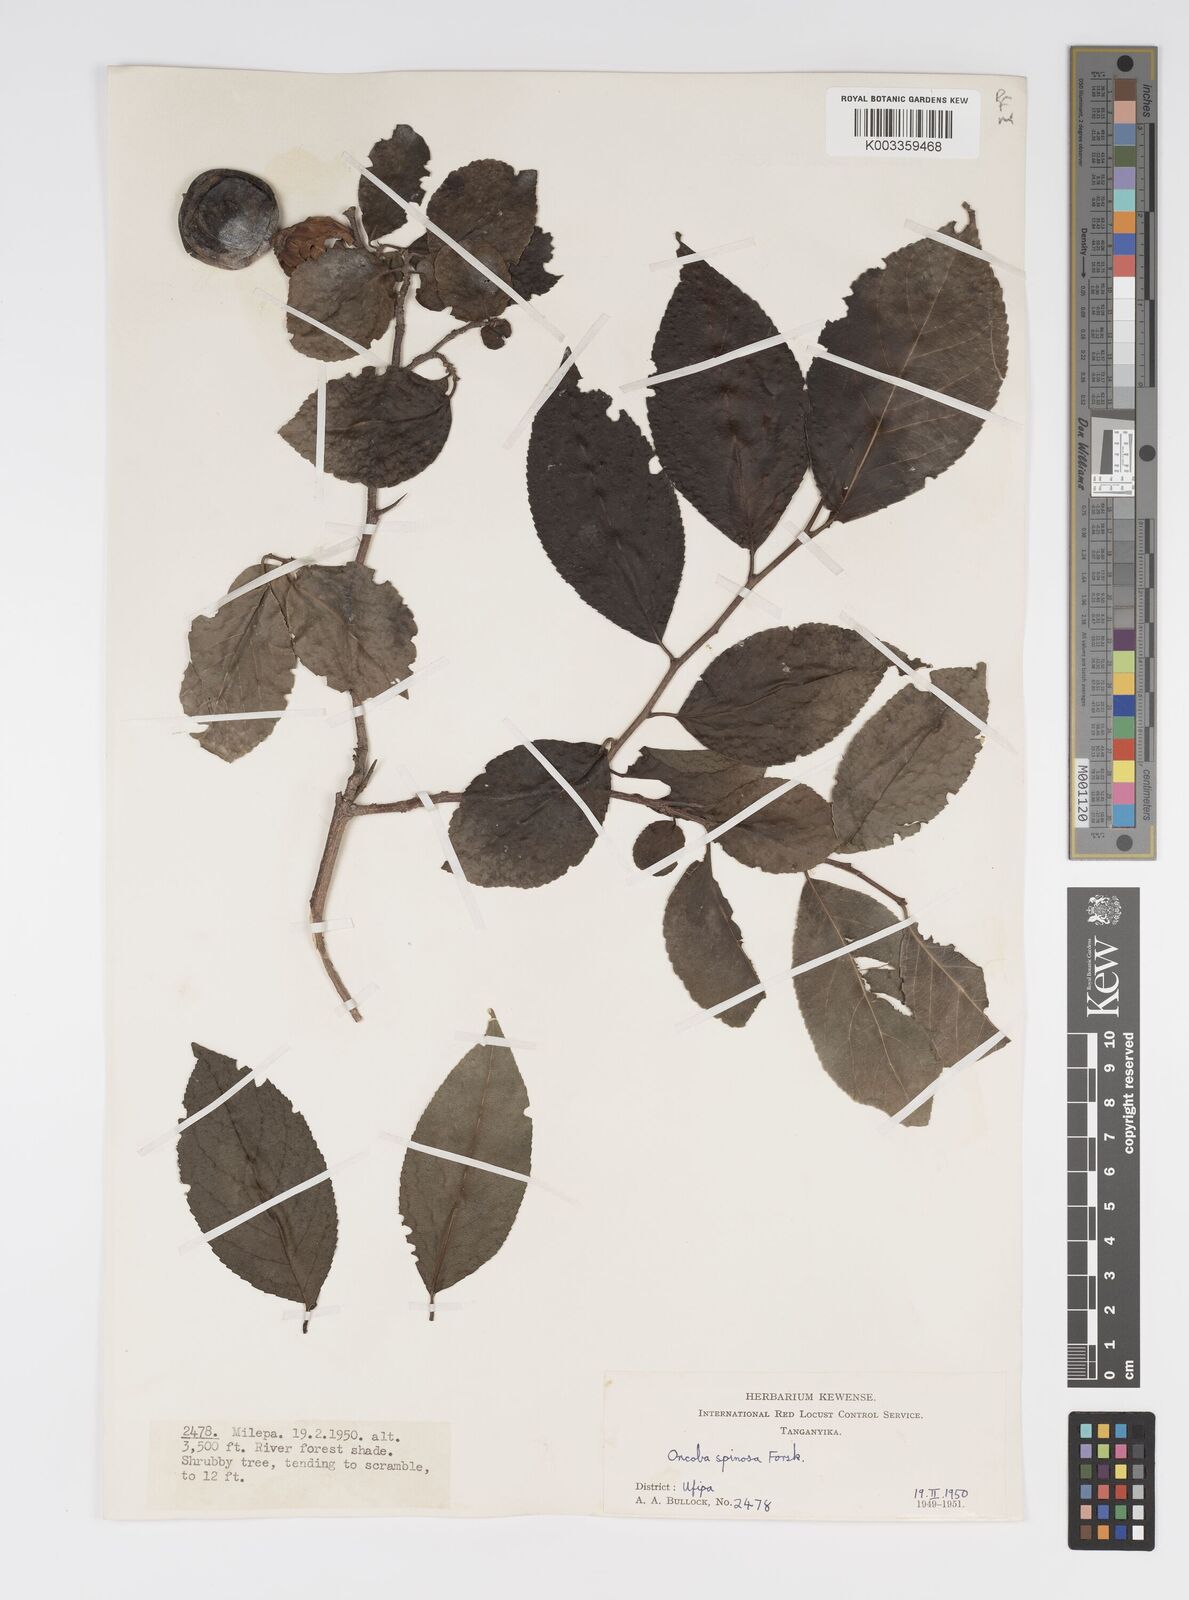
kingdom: Plantae
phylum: Tracheophyta
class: Magnoliopsida
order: Malpighiales
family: Salicaceae
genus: Oncoba
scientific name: Oncoba spinosa
